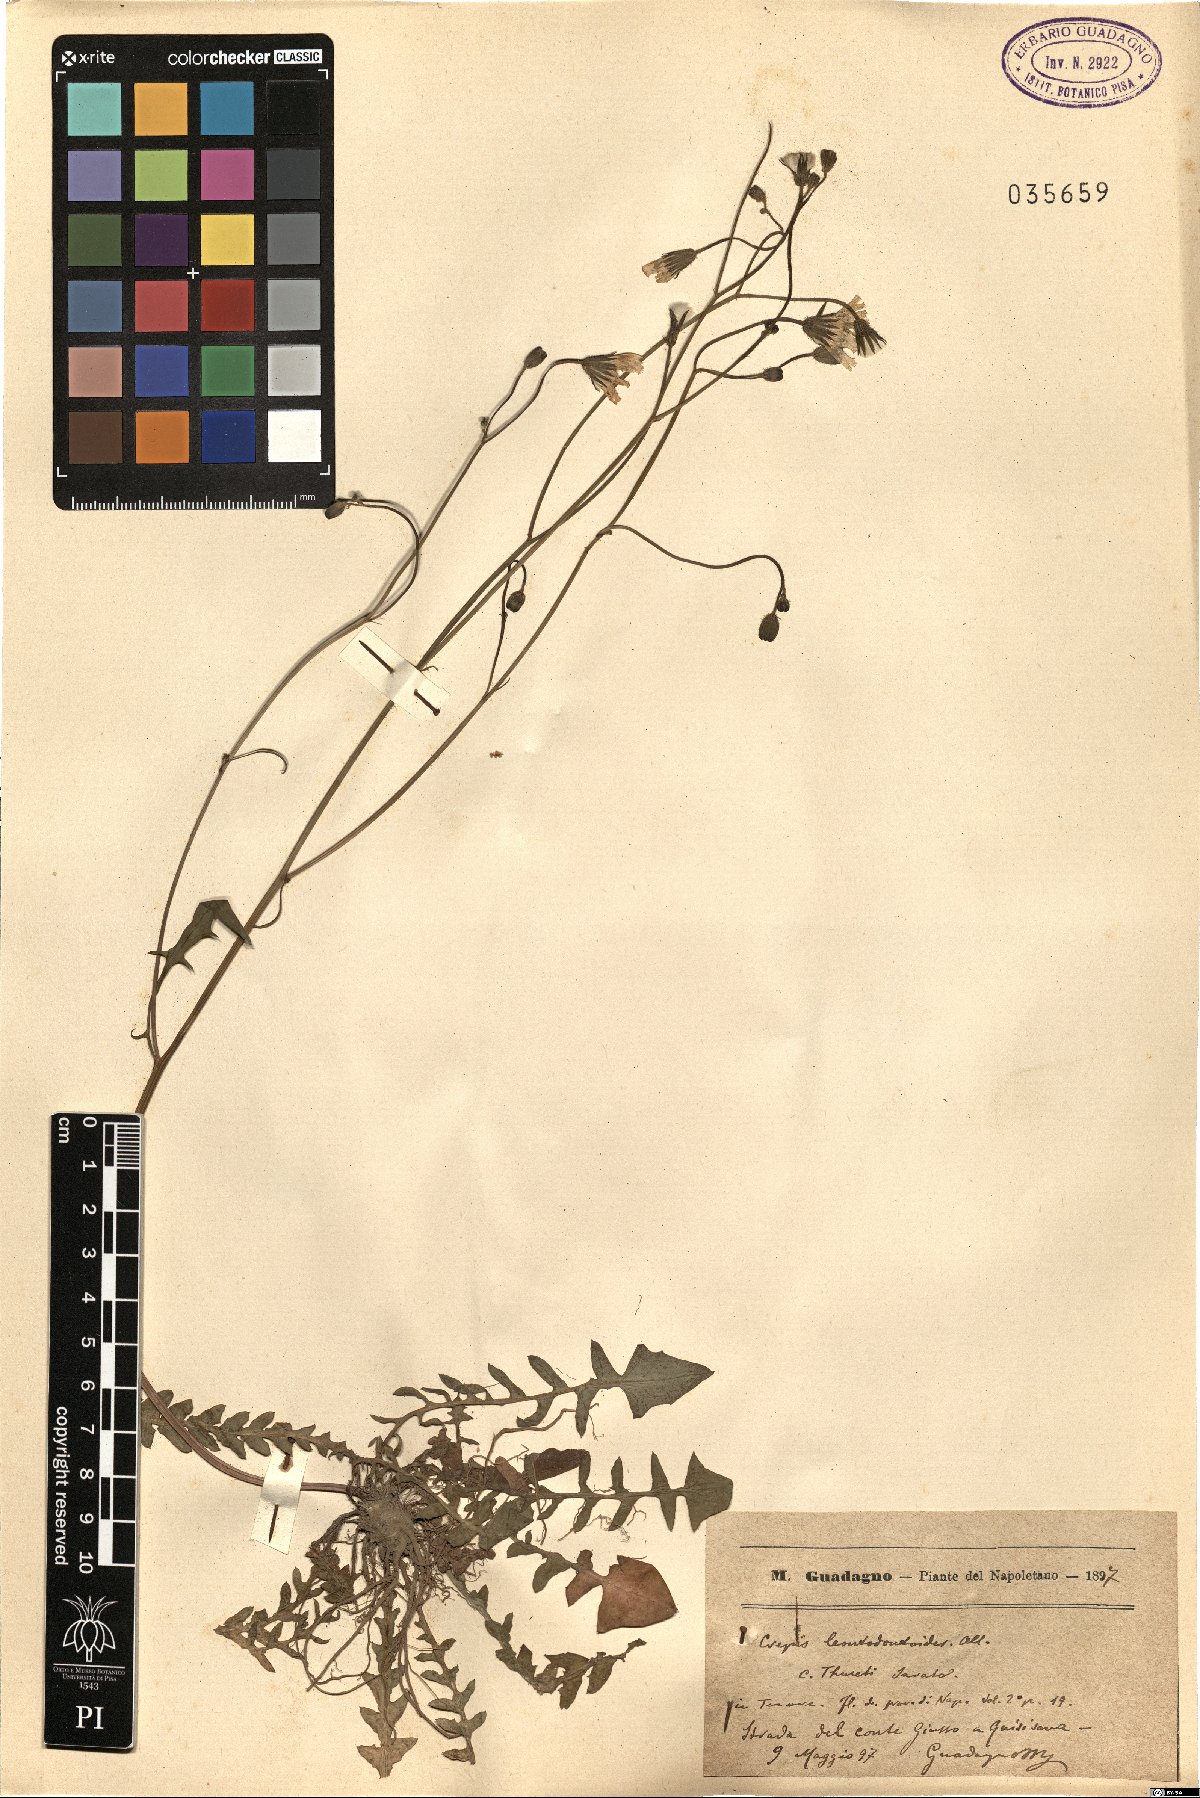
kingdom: Plantae
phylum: Tracheophyta
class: Magnoliopsida
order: Asterales
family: Asteraceae
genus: Crepis
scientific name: Crepis leontodontoides
